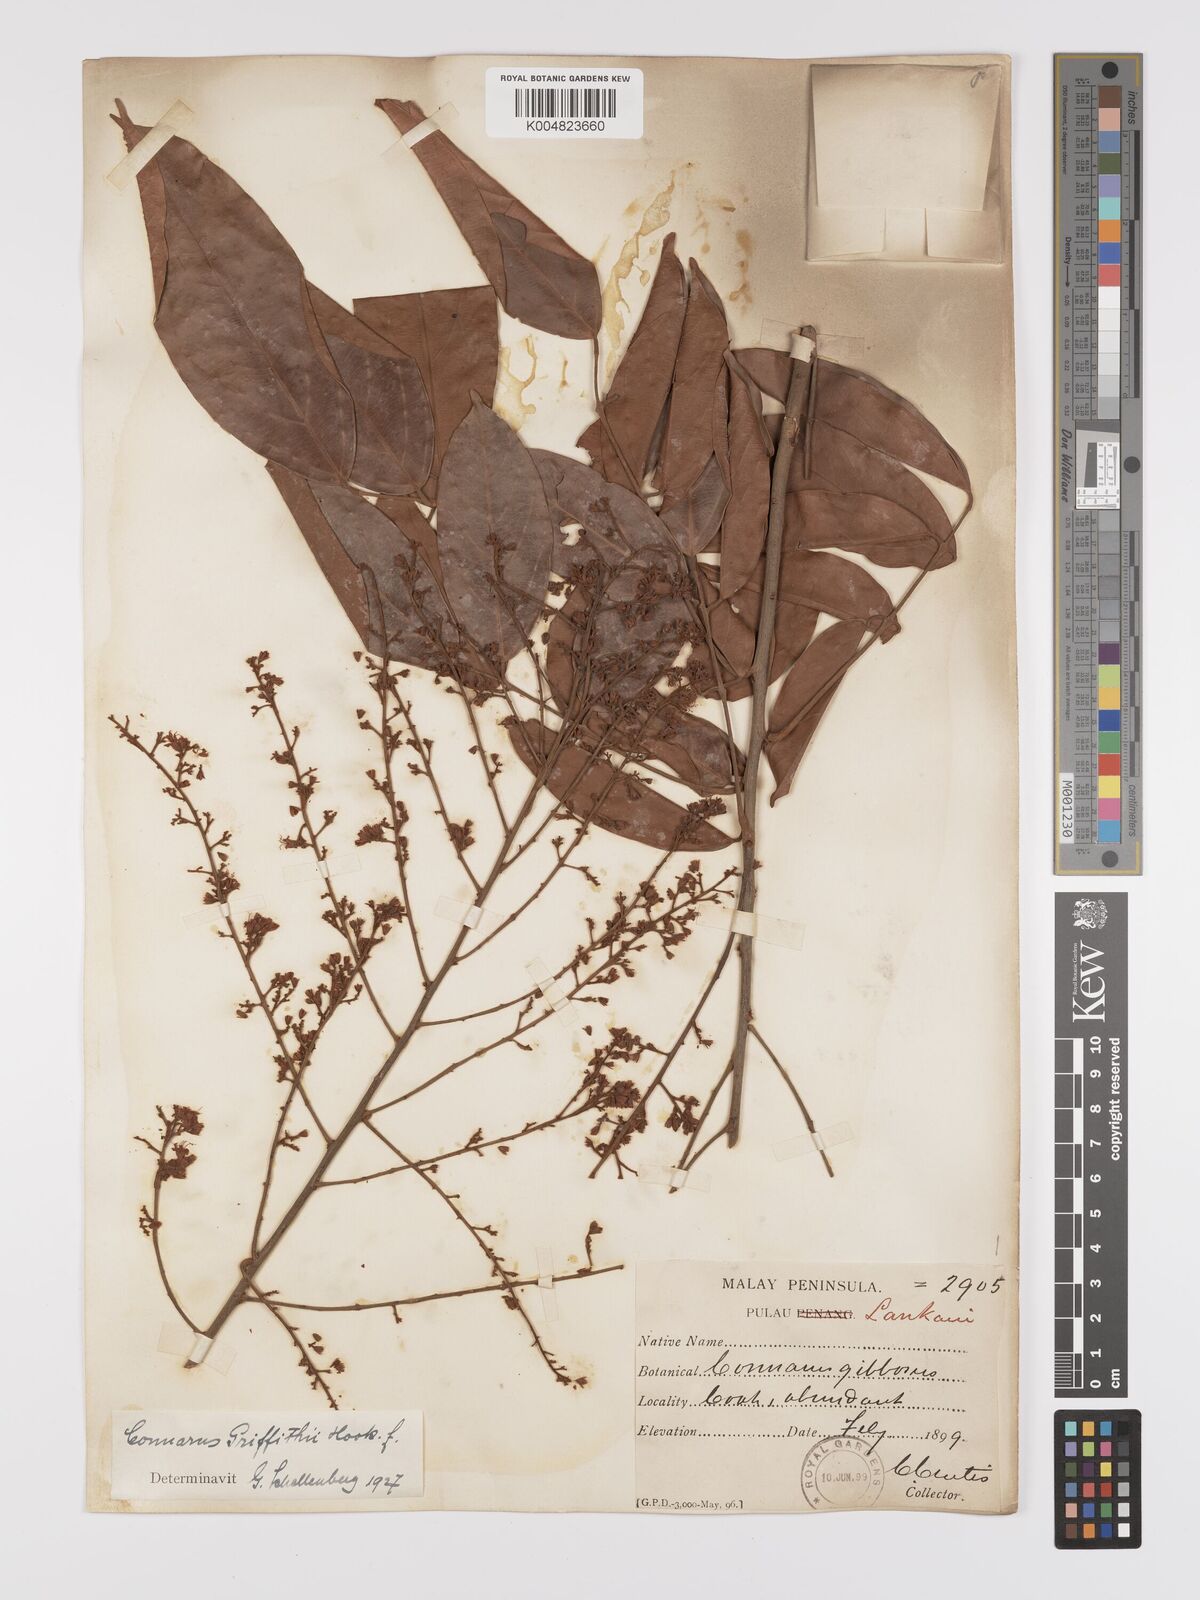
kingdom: Plantae
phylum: Tracheophyta
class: Magnoliopsida
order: Oxalidales
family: Connaraceae
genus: Connarus
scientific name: Connarus semidecandrus
